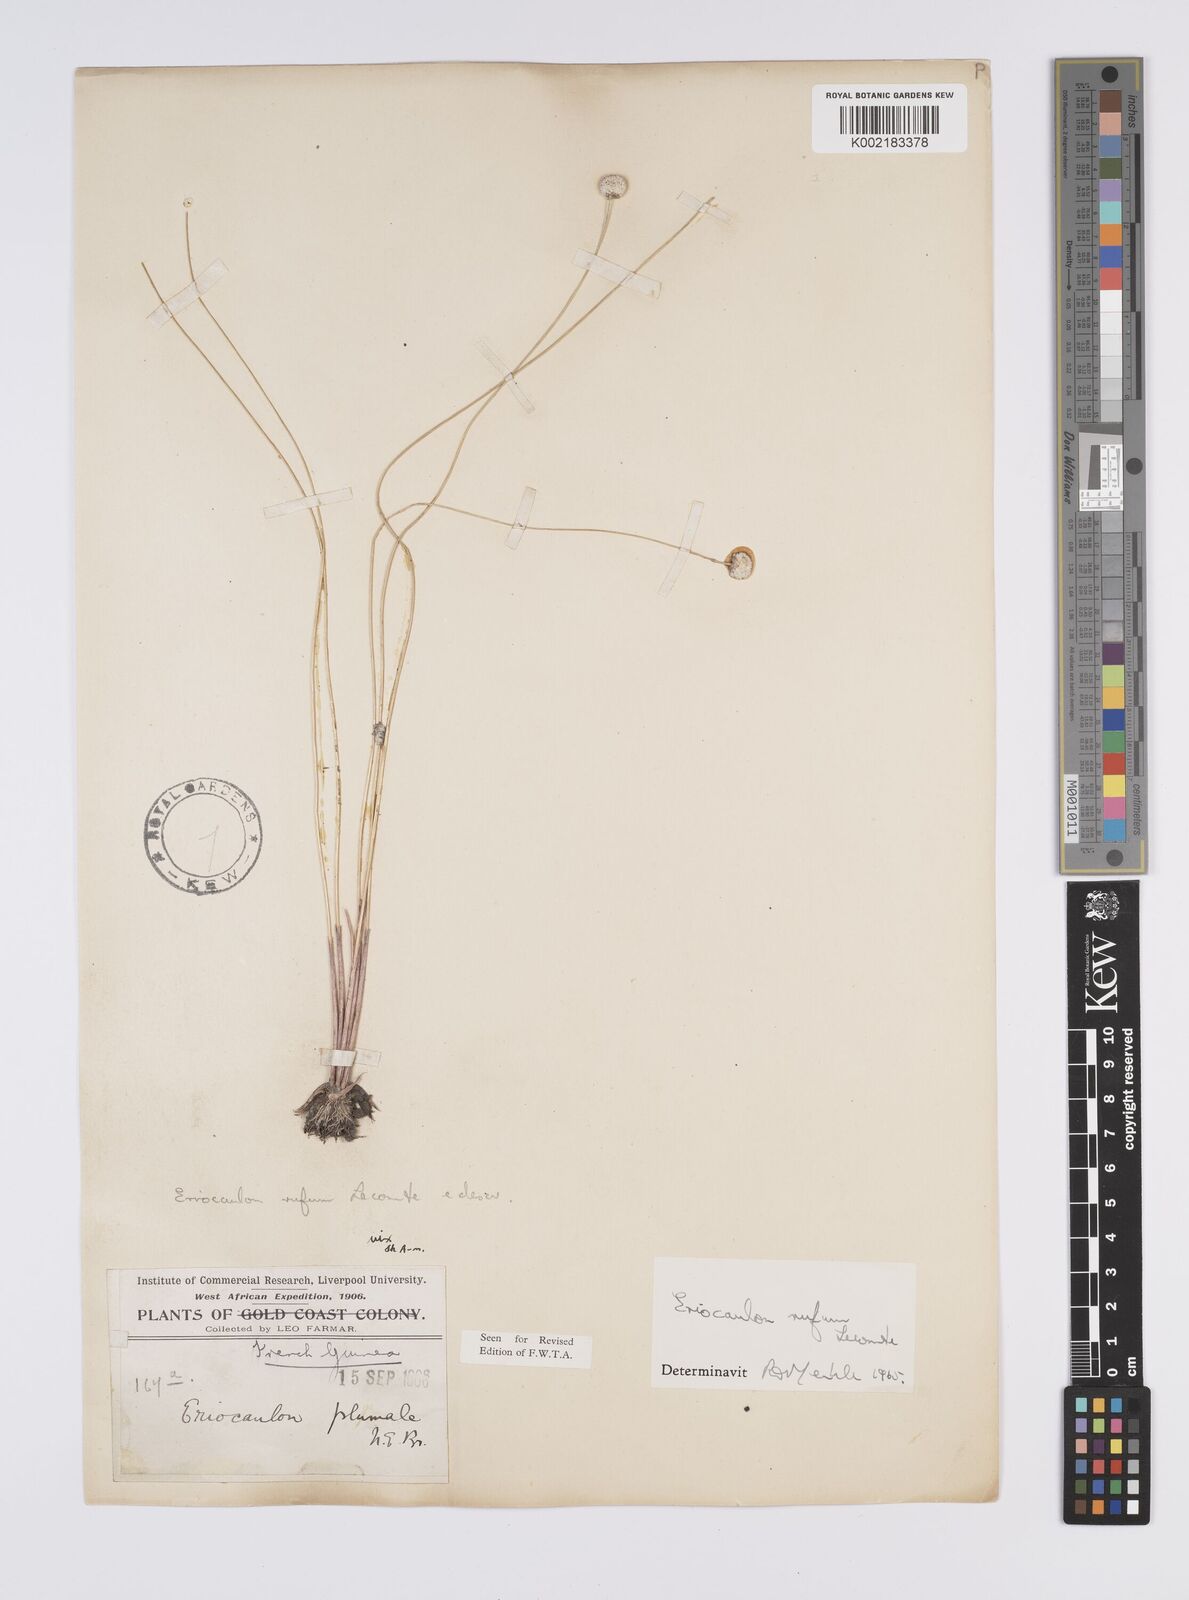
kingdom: Plantae
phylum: Tracheophyta
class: Liliopsida
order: Poales
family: Eriocaulaceae
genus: Eriocaulon
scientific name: Eriocaulon rufum
